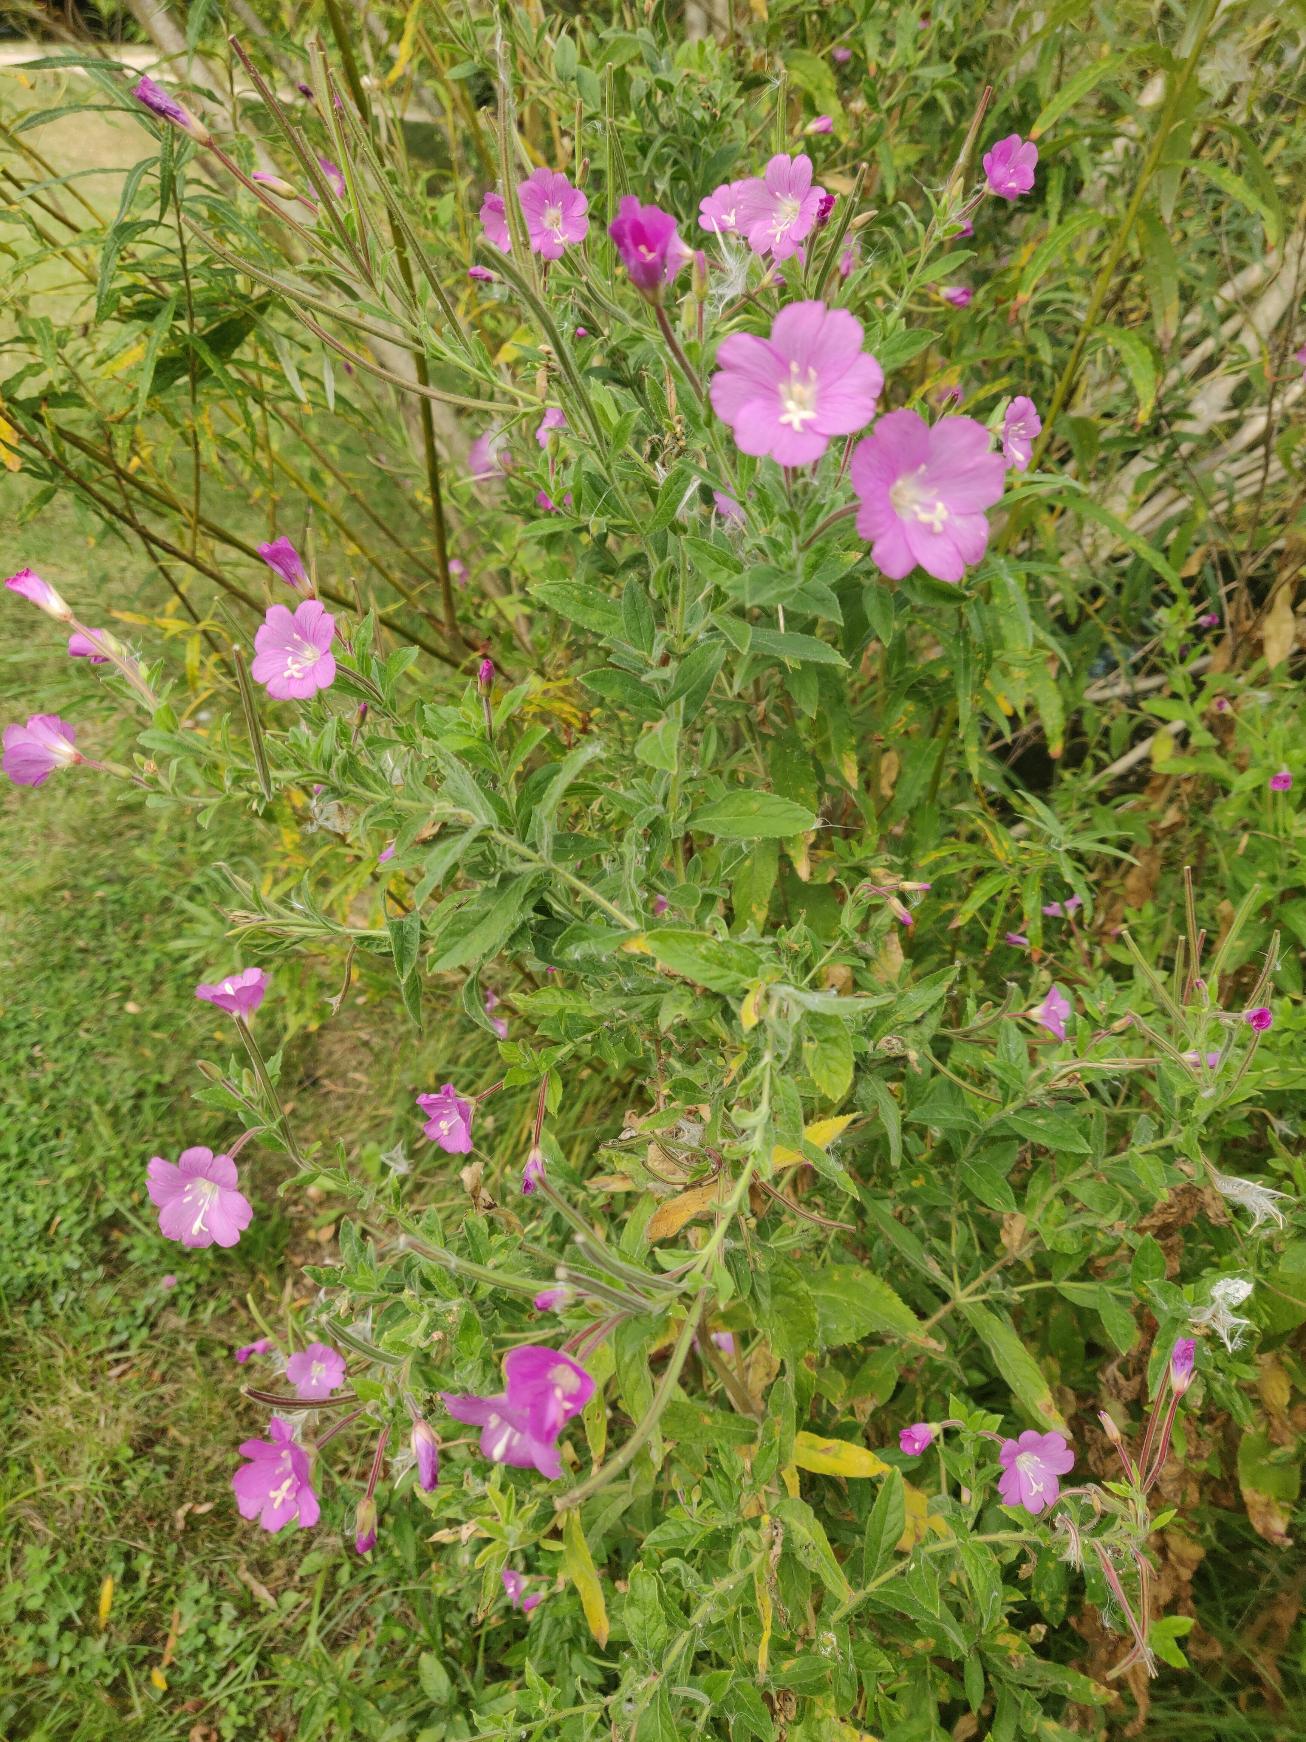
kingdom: Plantae
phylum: Tracheophyta
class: Magnoliopsida
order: Myrtales
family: Onagraceae
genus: Epilobium
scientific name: Epilobium hirsutum
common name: Lådden dueurt
